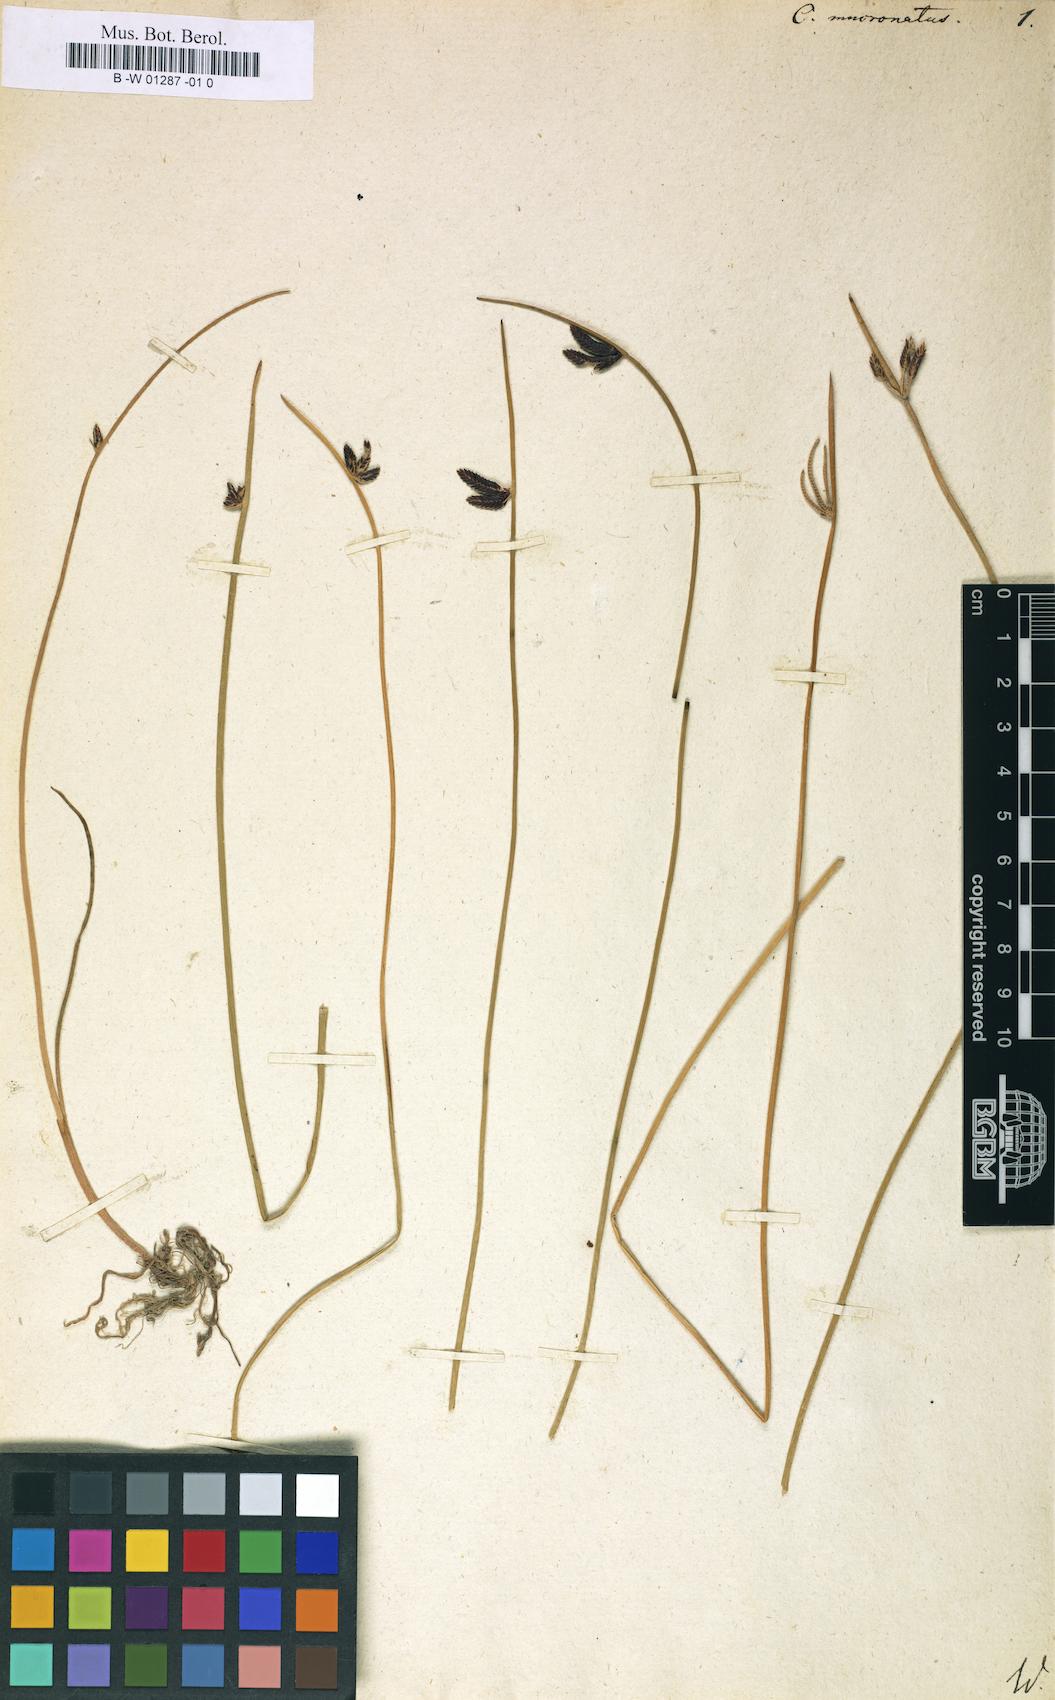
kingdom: Plantae
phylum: Tracheophyta
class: Liliopsida
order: Poales
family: Cyperaceae
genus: Cyperus
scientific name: Cyperus laevigatus
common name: Smooth flat sedge
